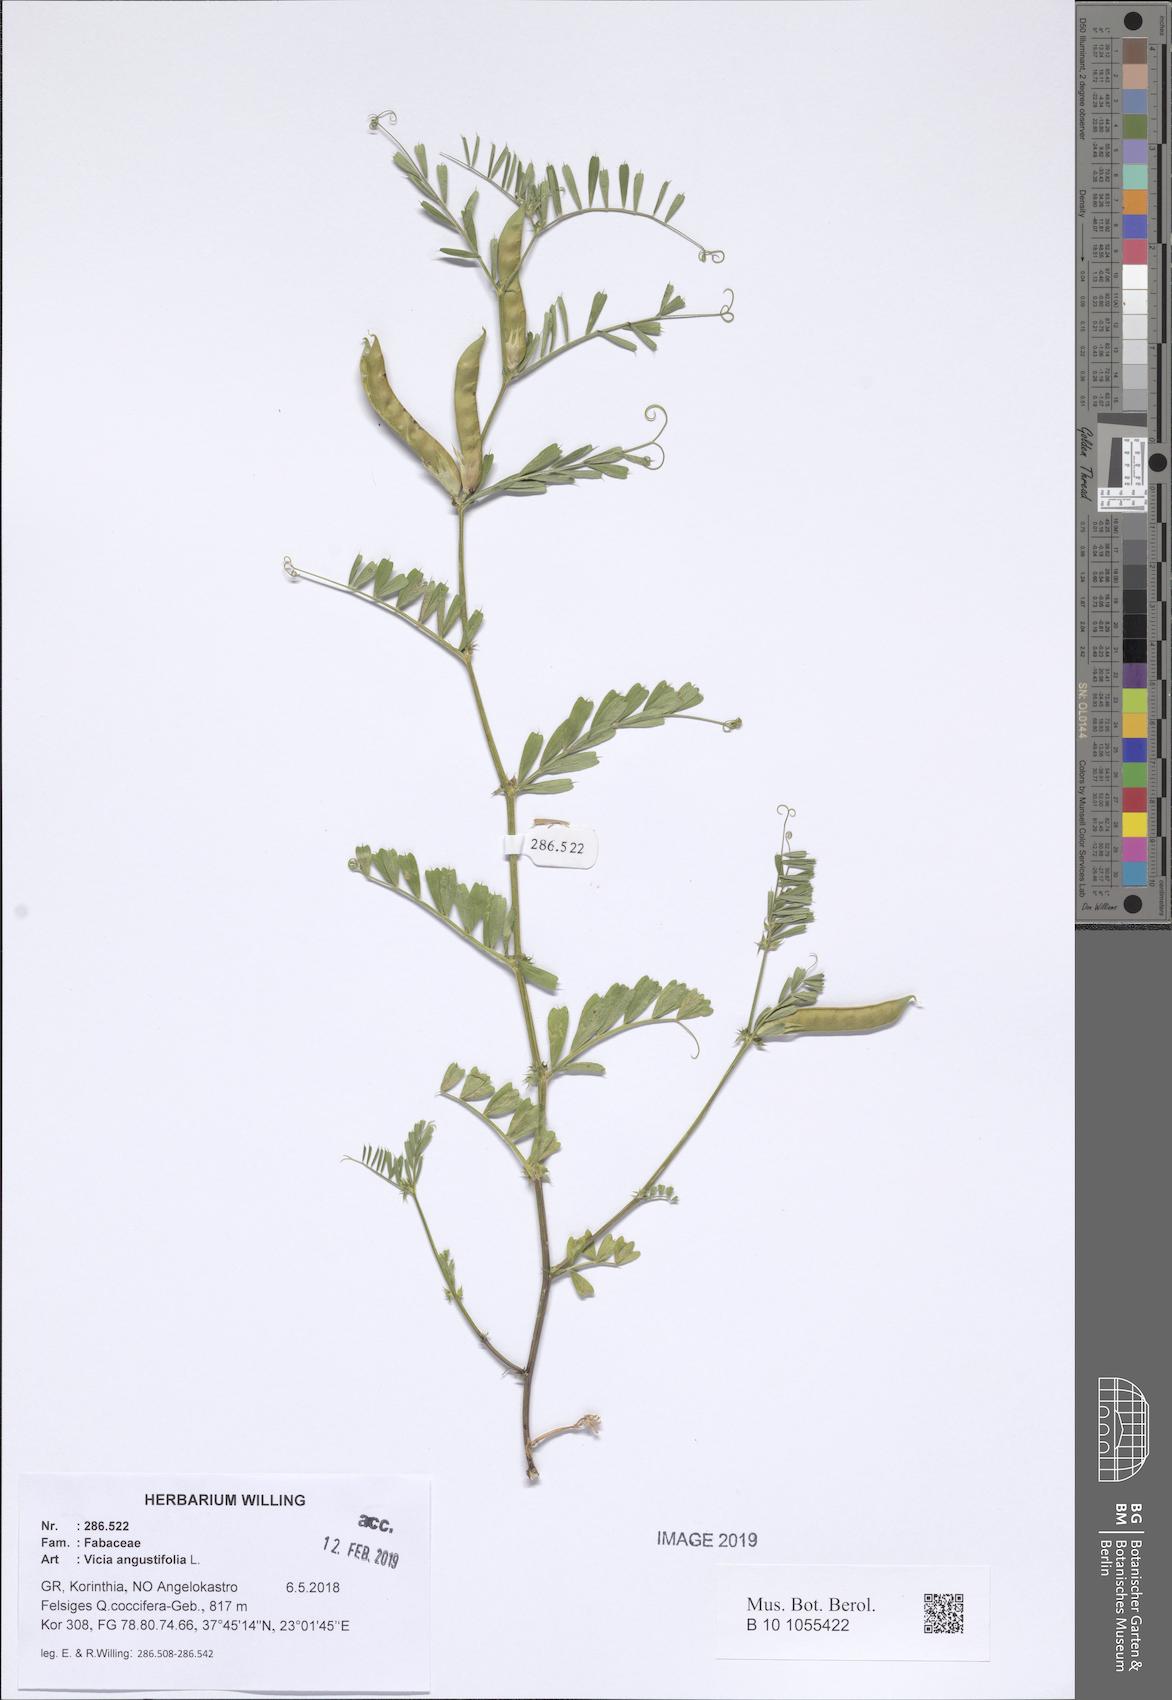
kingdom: Plantae
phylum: Tracheophyta
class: Magnoliopsida
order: Fabales
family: Fabaceae
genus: Vicia
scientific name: Vicia sativa
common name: Garden vetch
